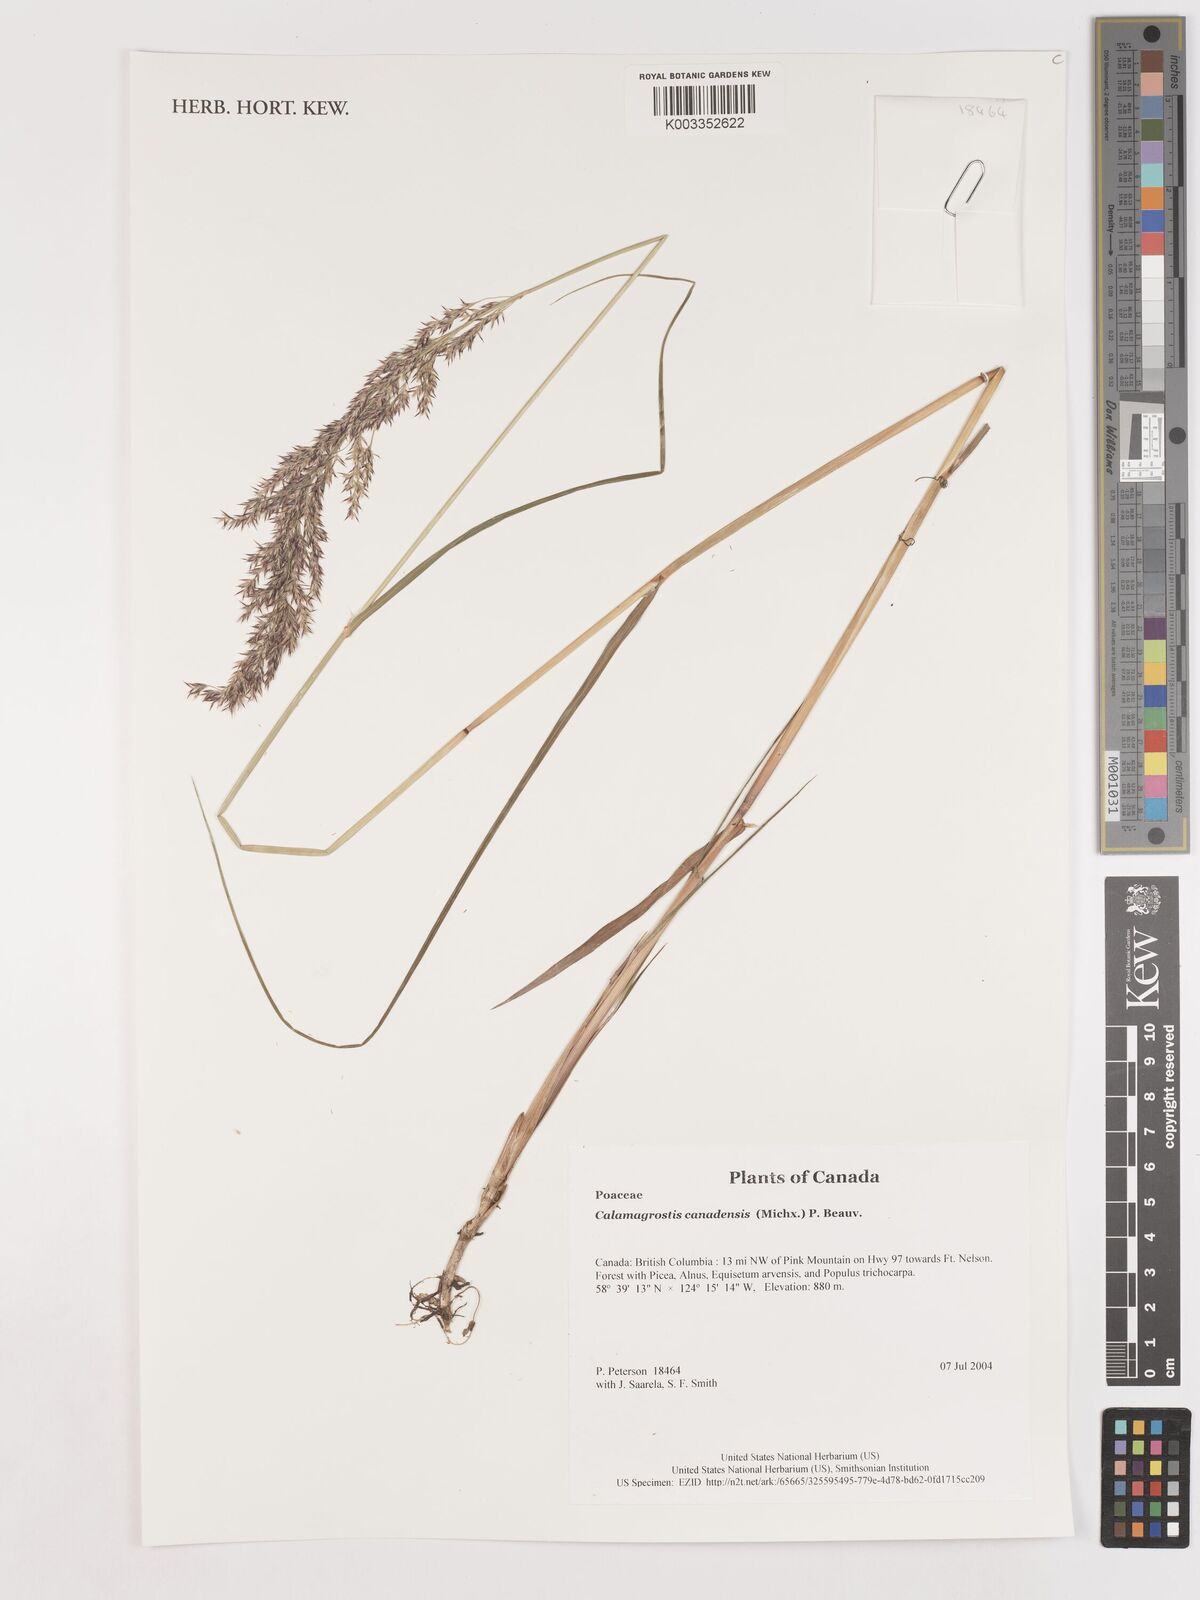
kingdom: Plantae
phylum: Tracheophyta
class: Liliopsida
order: Poales
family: Poaceae
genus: Calamagrostis
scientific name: Calamagrostis canadensis
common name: Canada bluejoint
